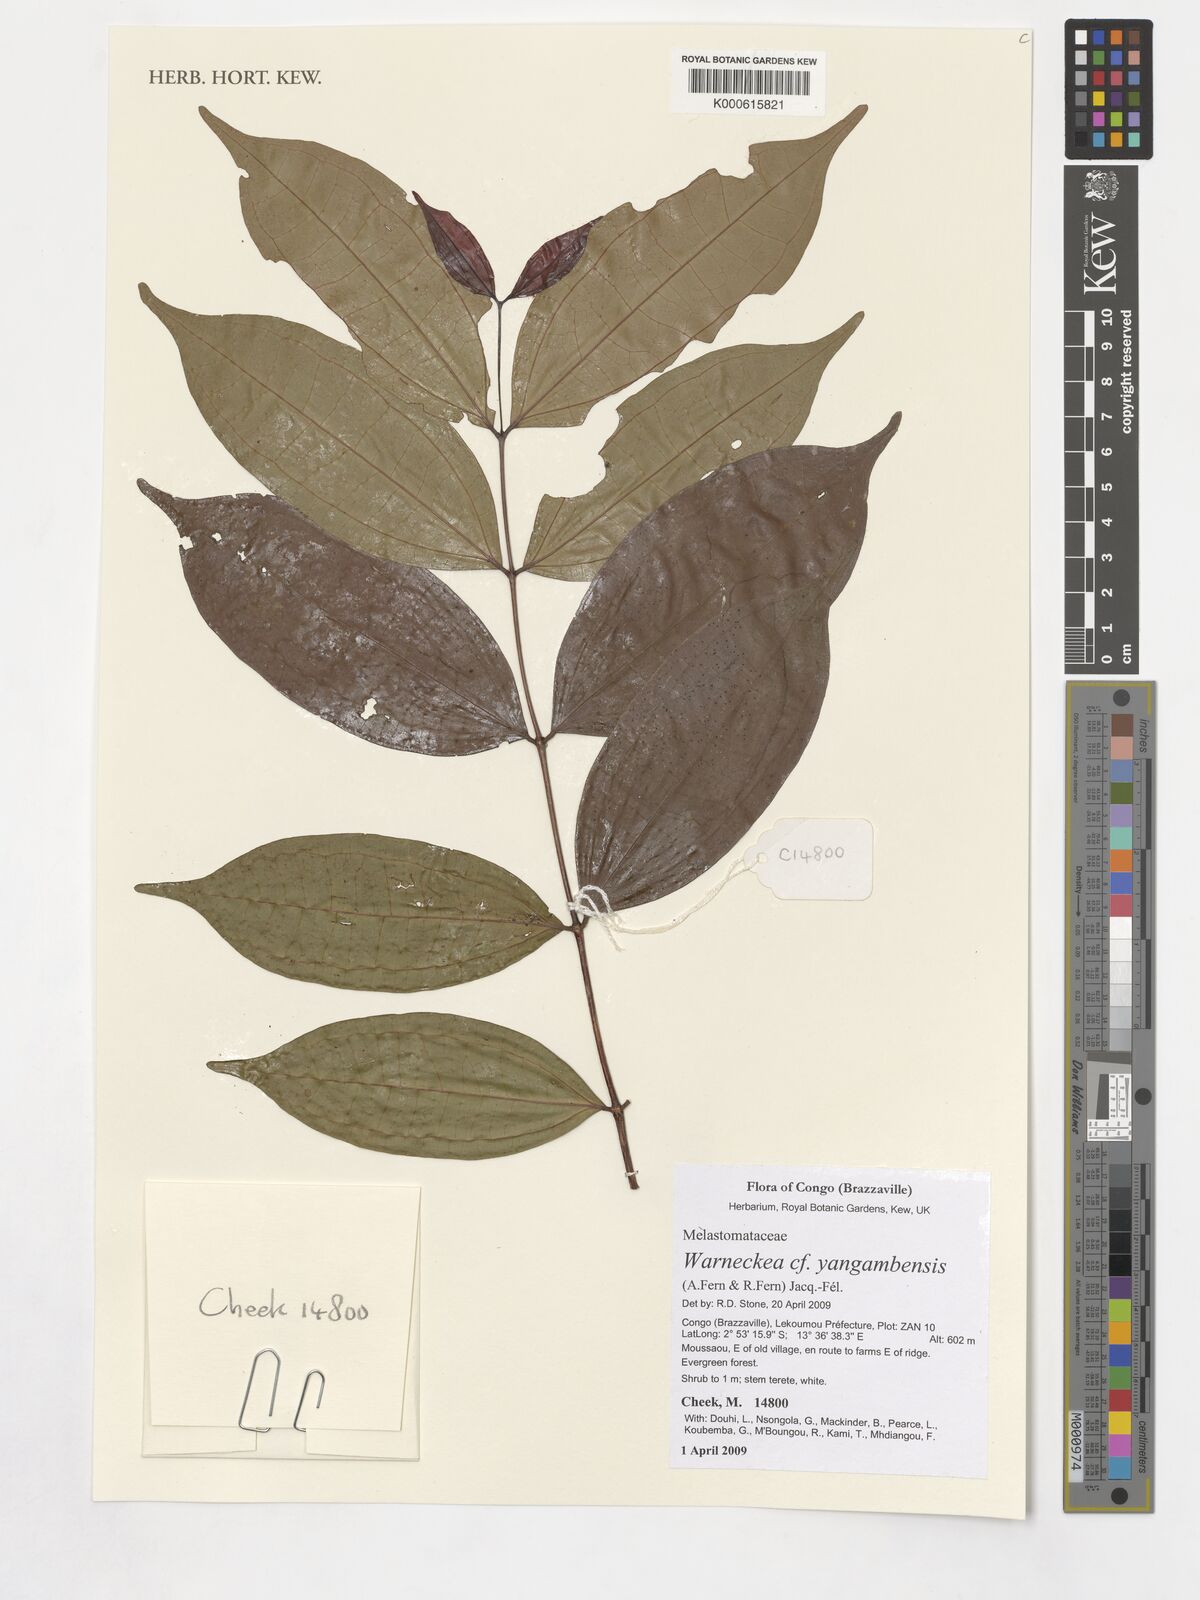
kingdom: Plantae
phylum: Tracheophyta
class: Magnoliopsida
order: Myrtales
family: Melastomataceae
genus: Warneckea
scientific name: Warneckea yangambensis
